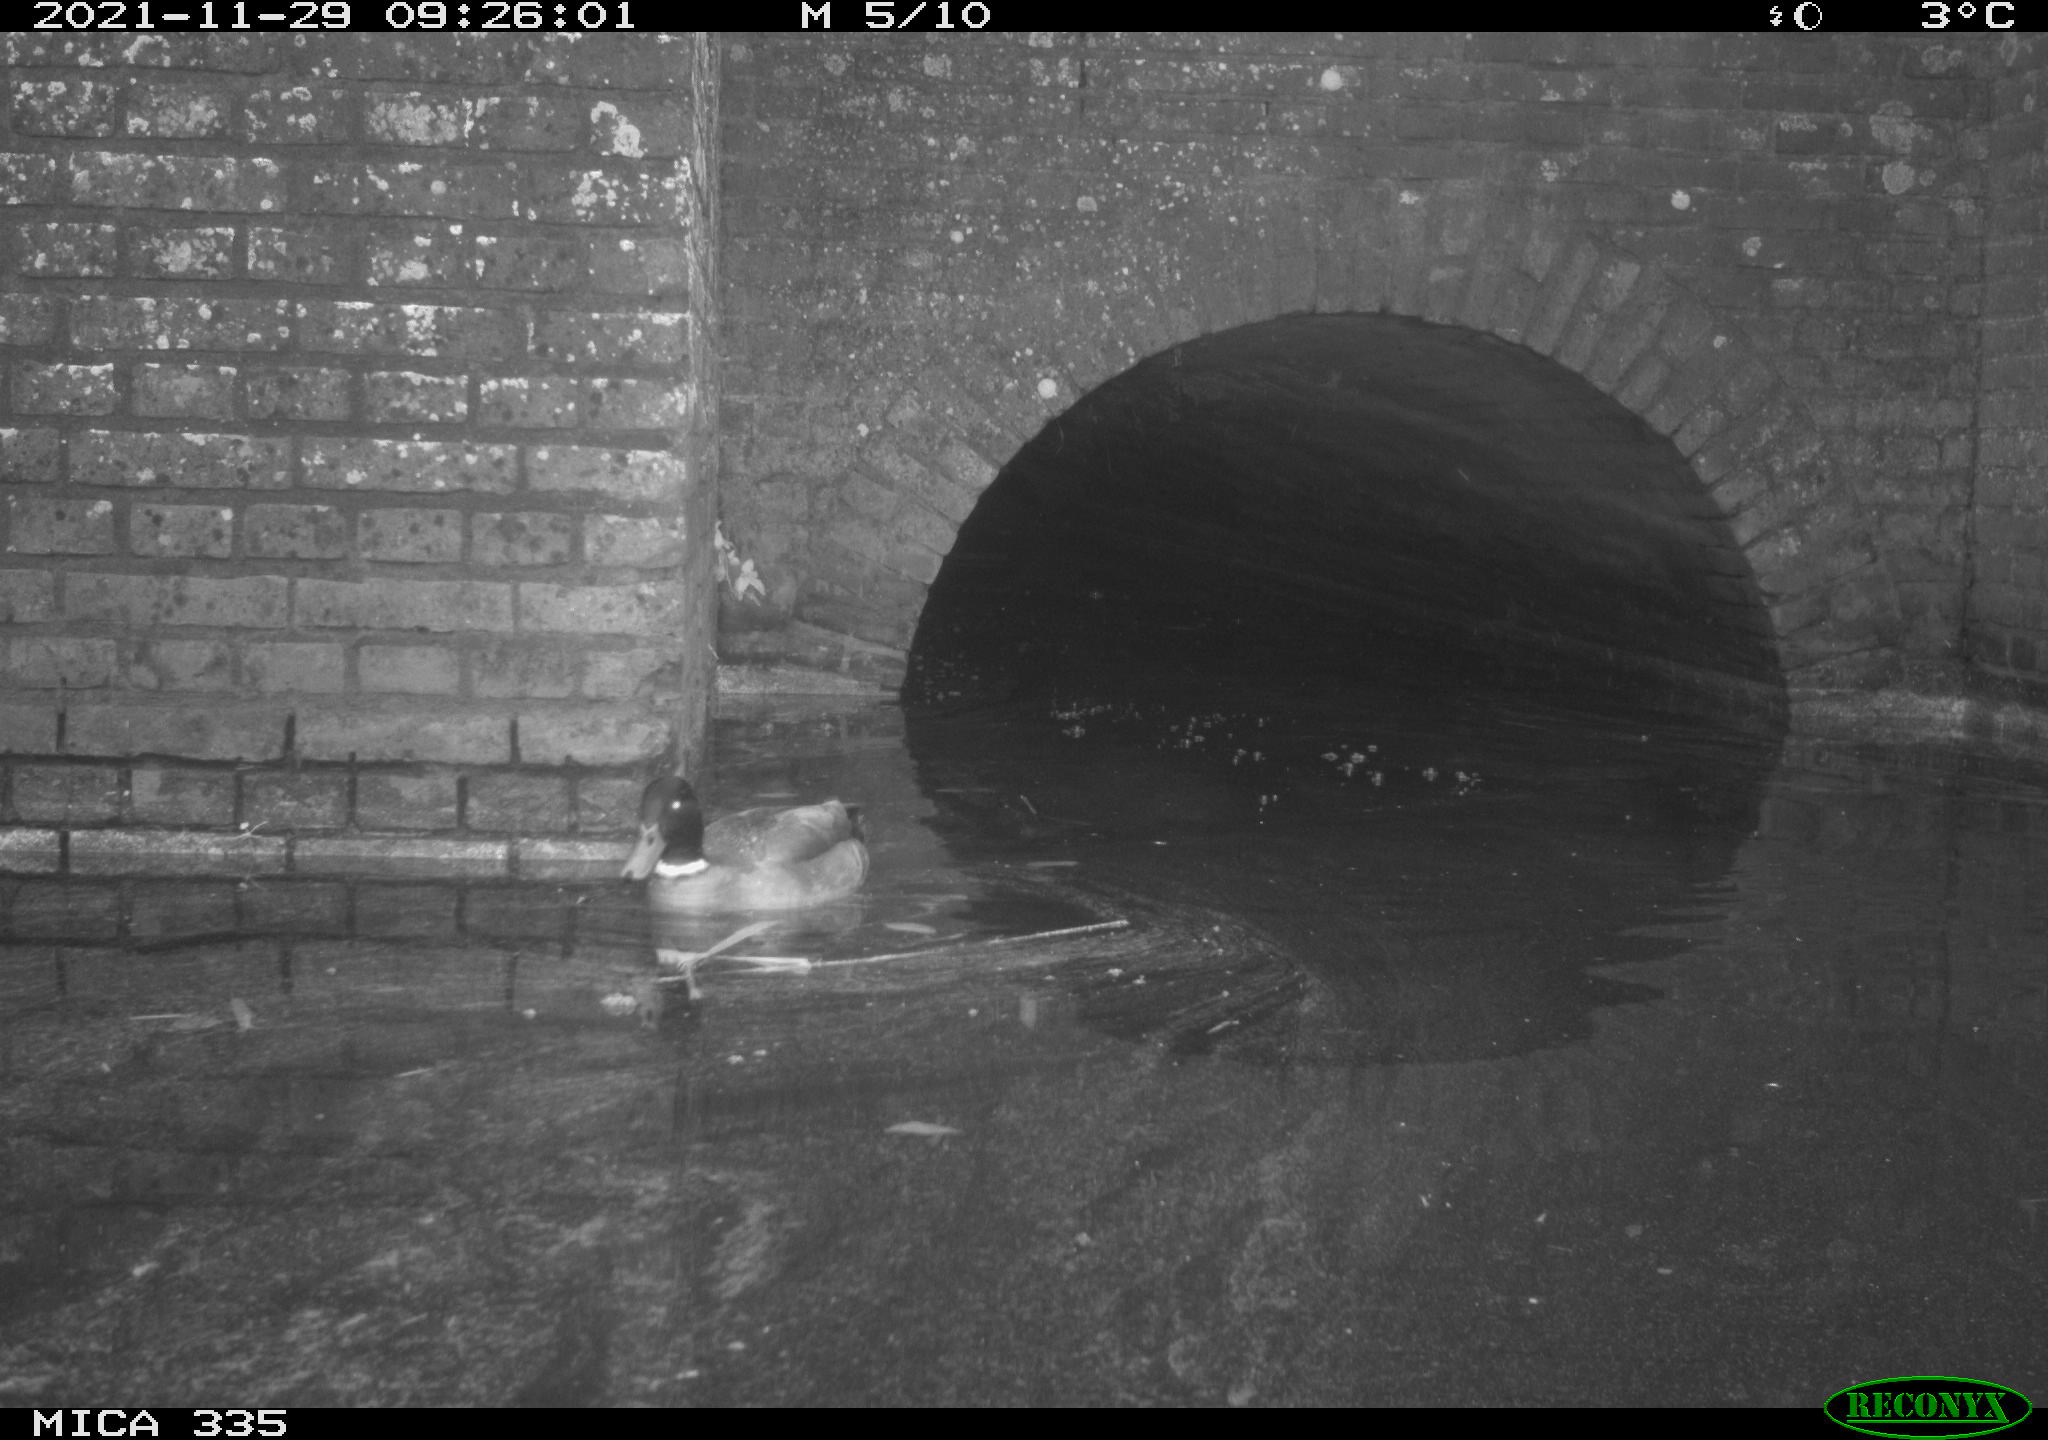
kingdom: Animalia
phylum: Chordata
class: Aves
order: Anseriformes
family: Anatidae
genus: Anas
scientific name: Anas platyrhynchos
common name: Mallard
